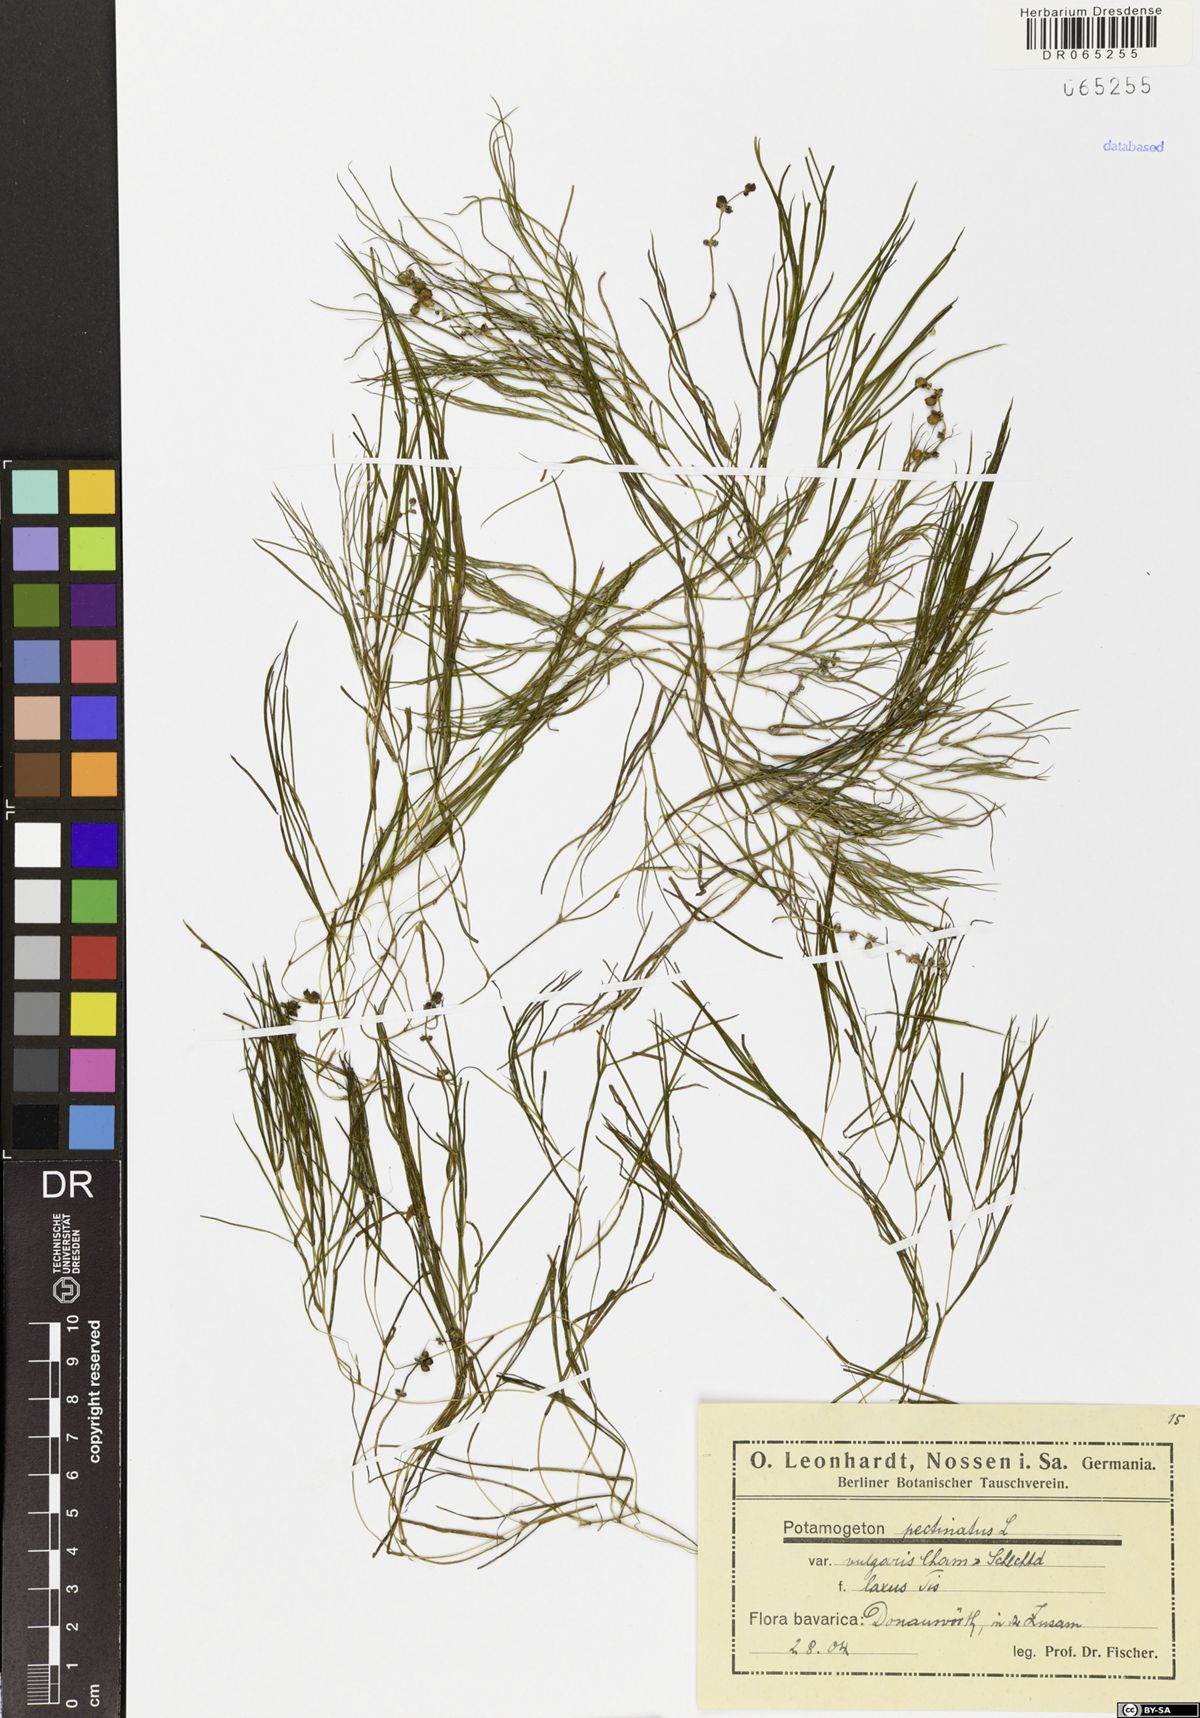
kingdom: Plantae
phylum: Tracheophyta
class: Liliopsida
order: Alismatales
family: Potamogetonaceae
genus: Stuckenia
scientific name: Stuckenia pectinata
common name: Sago pondweed
